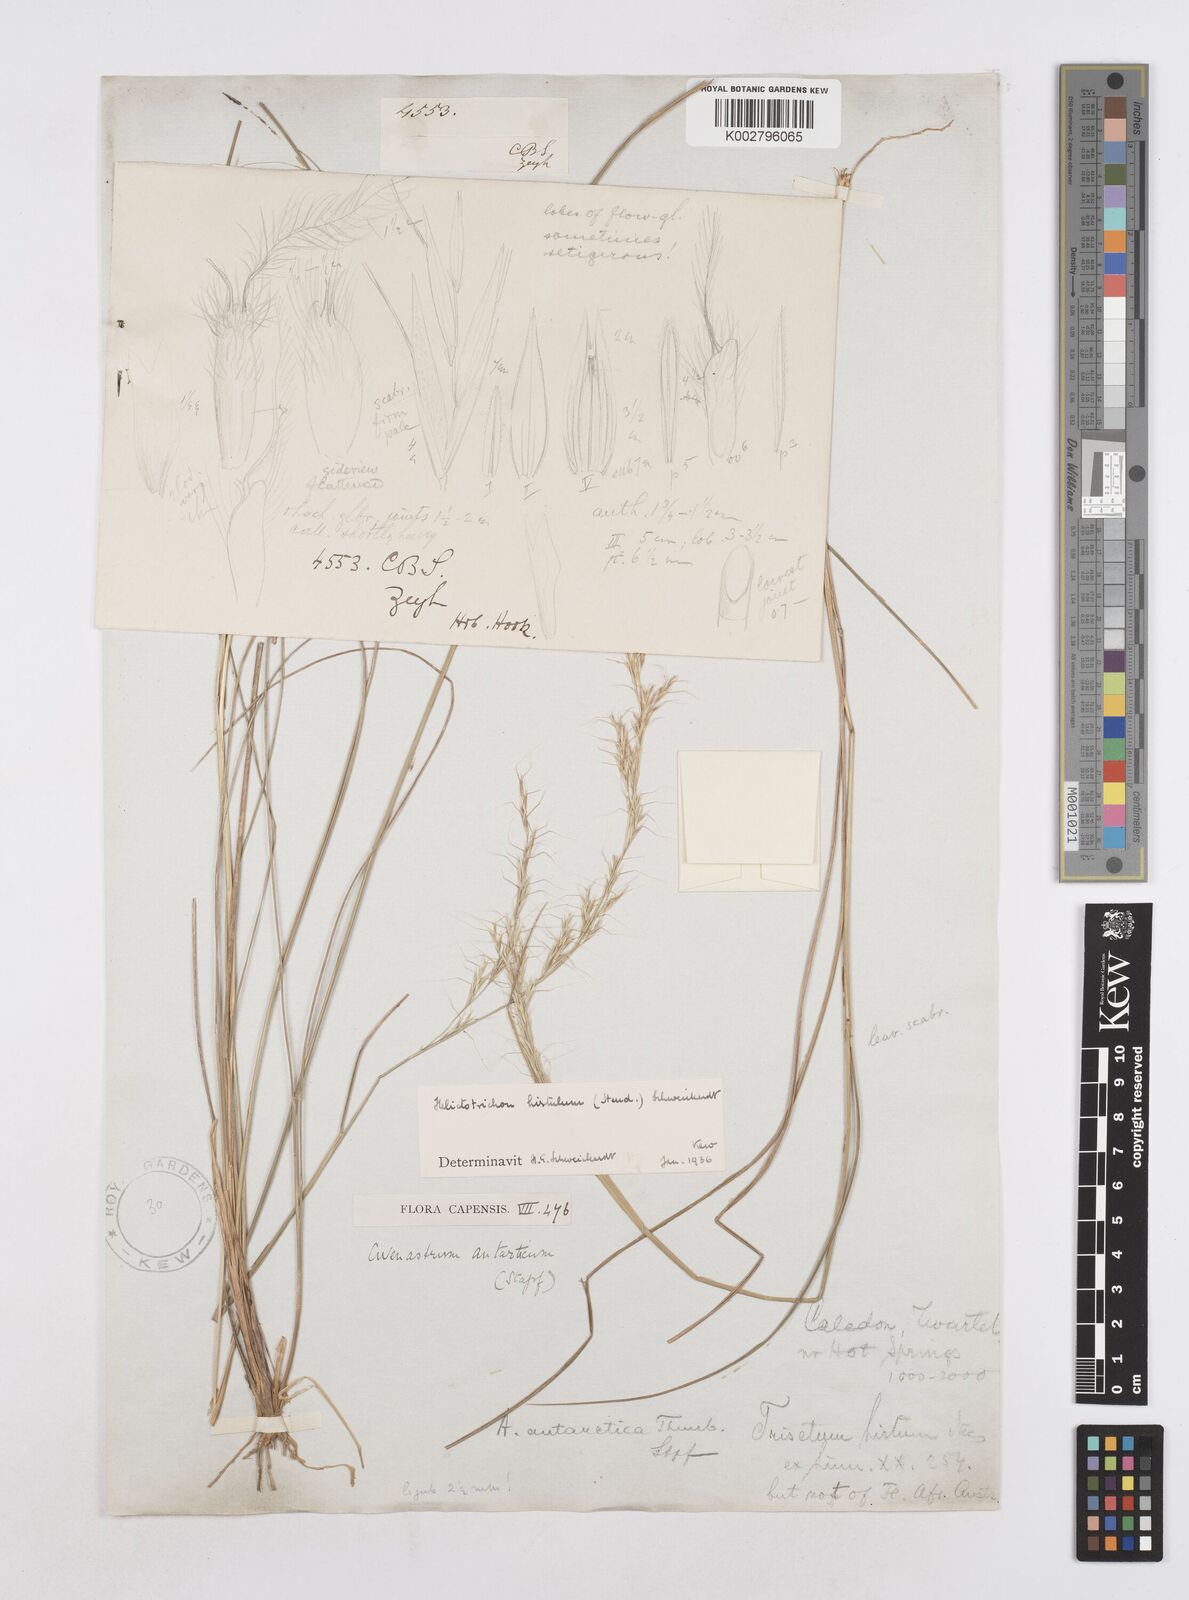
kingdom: Plantae
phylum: Tracheophyta
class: Liliopsida
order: Poales
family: Poaceae
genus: Trisetopsis
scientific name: Trisetopsis hirtula
